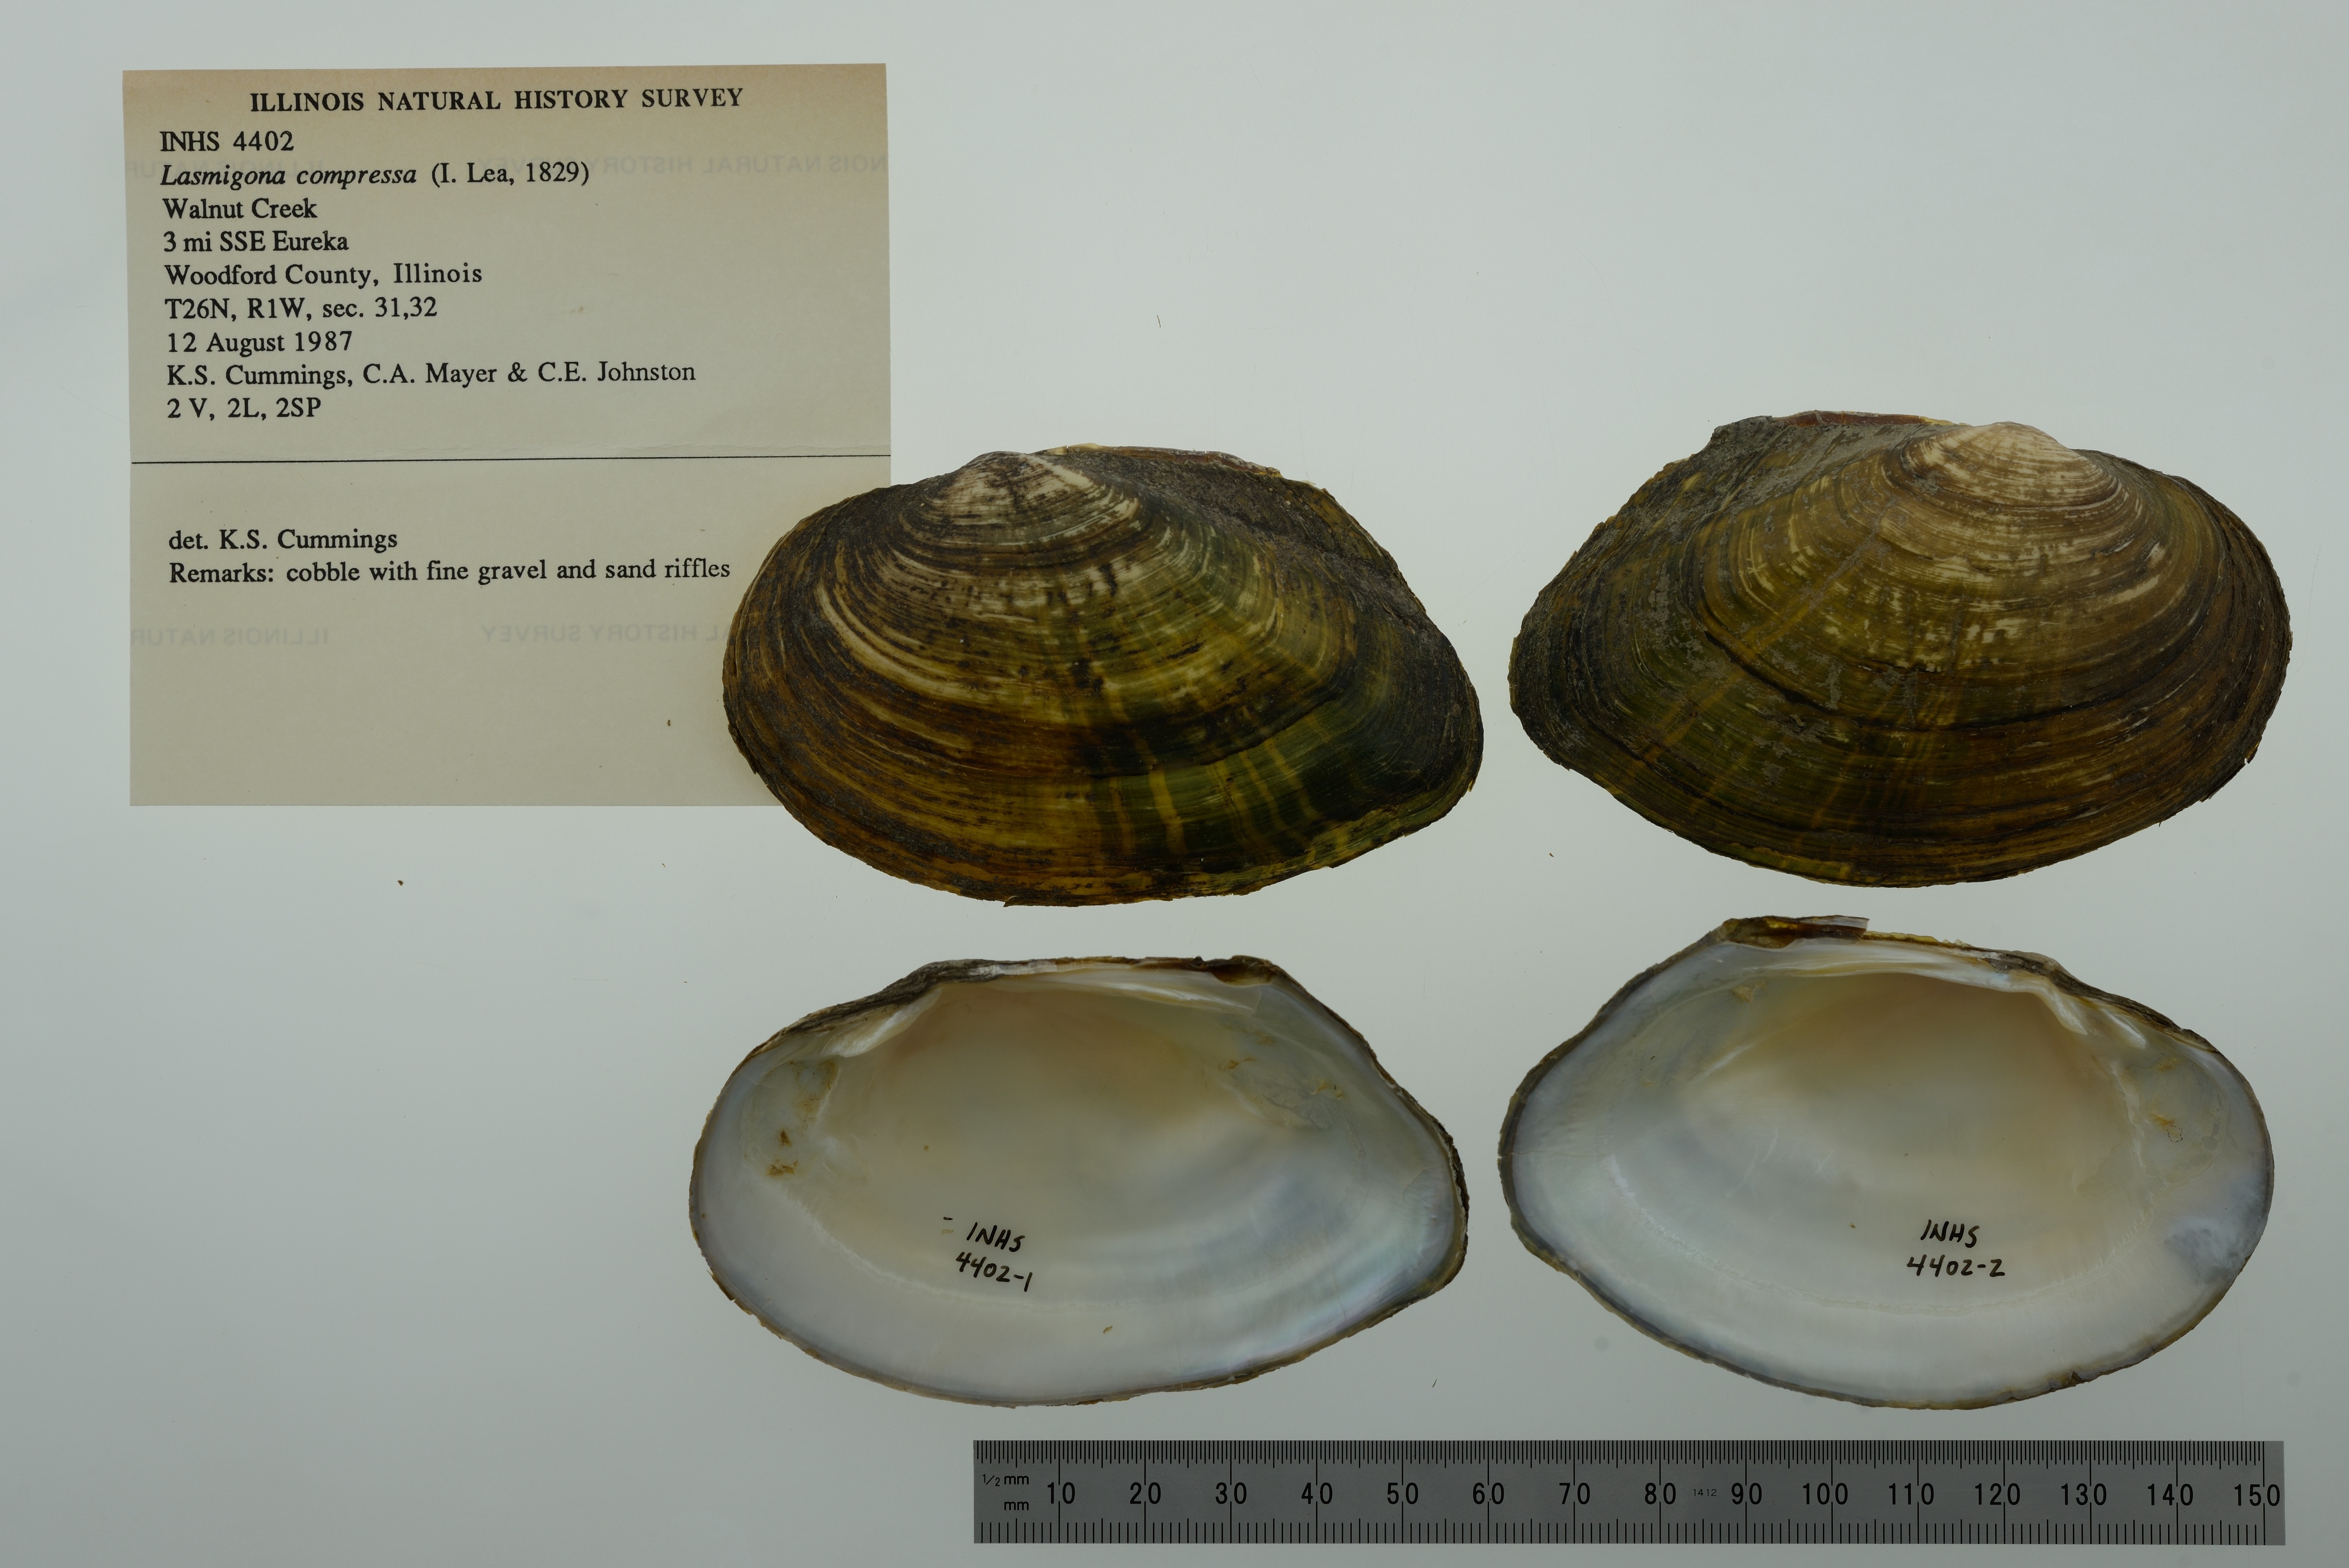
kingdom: Animalia
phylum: Mollusca
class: Bivalvia
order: Unionida
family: Unionidae
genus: Lasmigona
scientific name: Lasmigona compressa
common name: Creek heelsplitter
